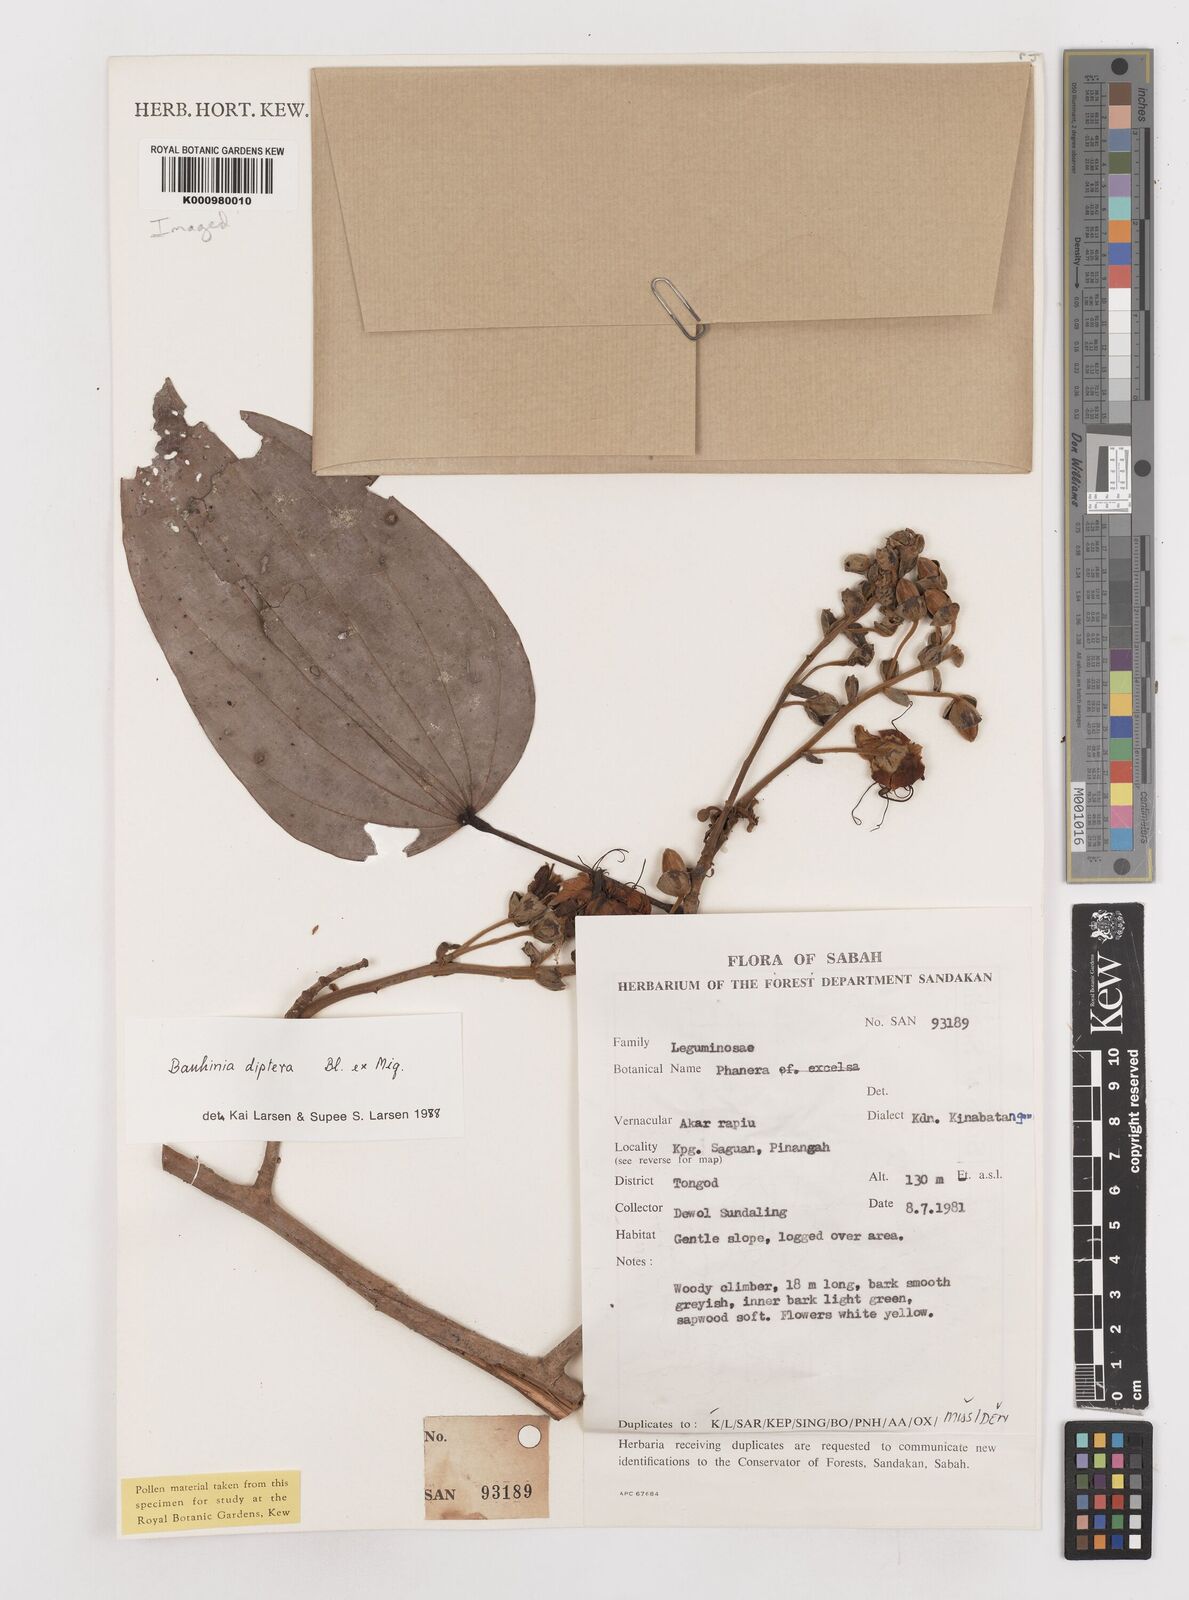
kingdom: Plantae
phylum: Tracheophyta
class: Magnoliopsida
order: Fabales
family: Fabaceae
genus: Lysiphyllum
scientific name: Lysiphyllum
